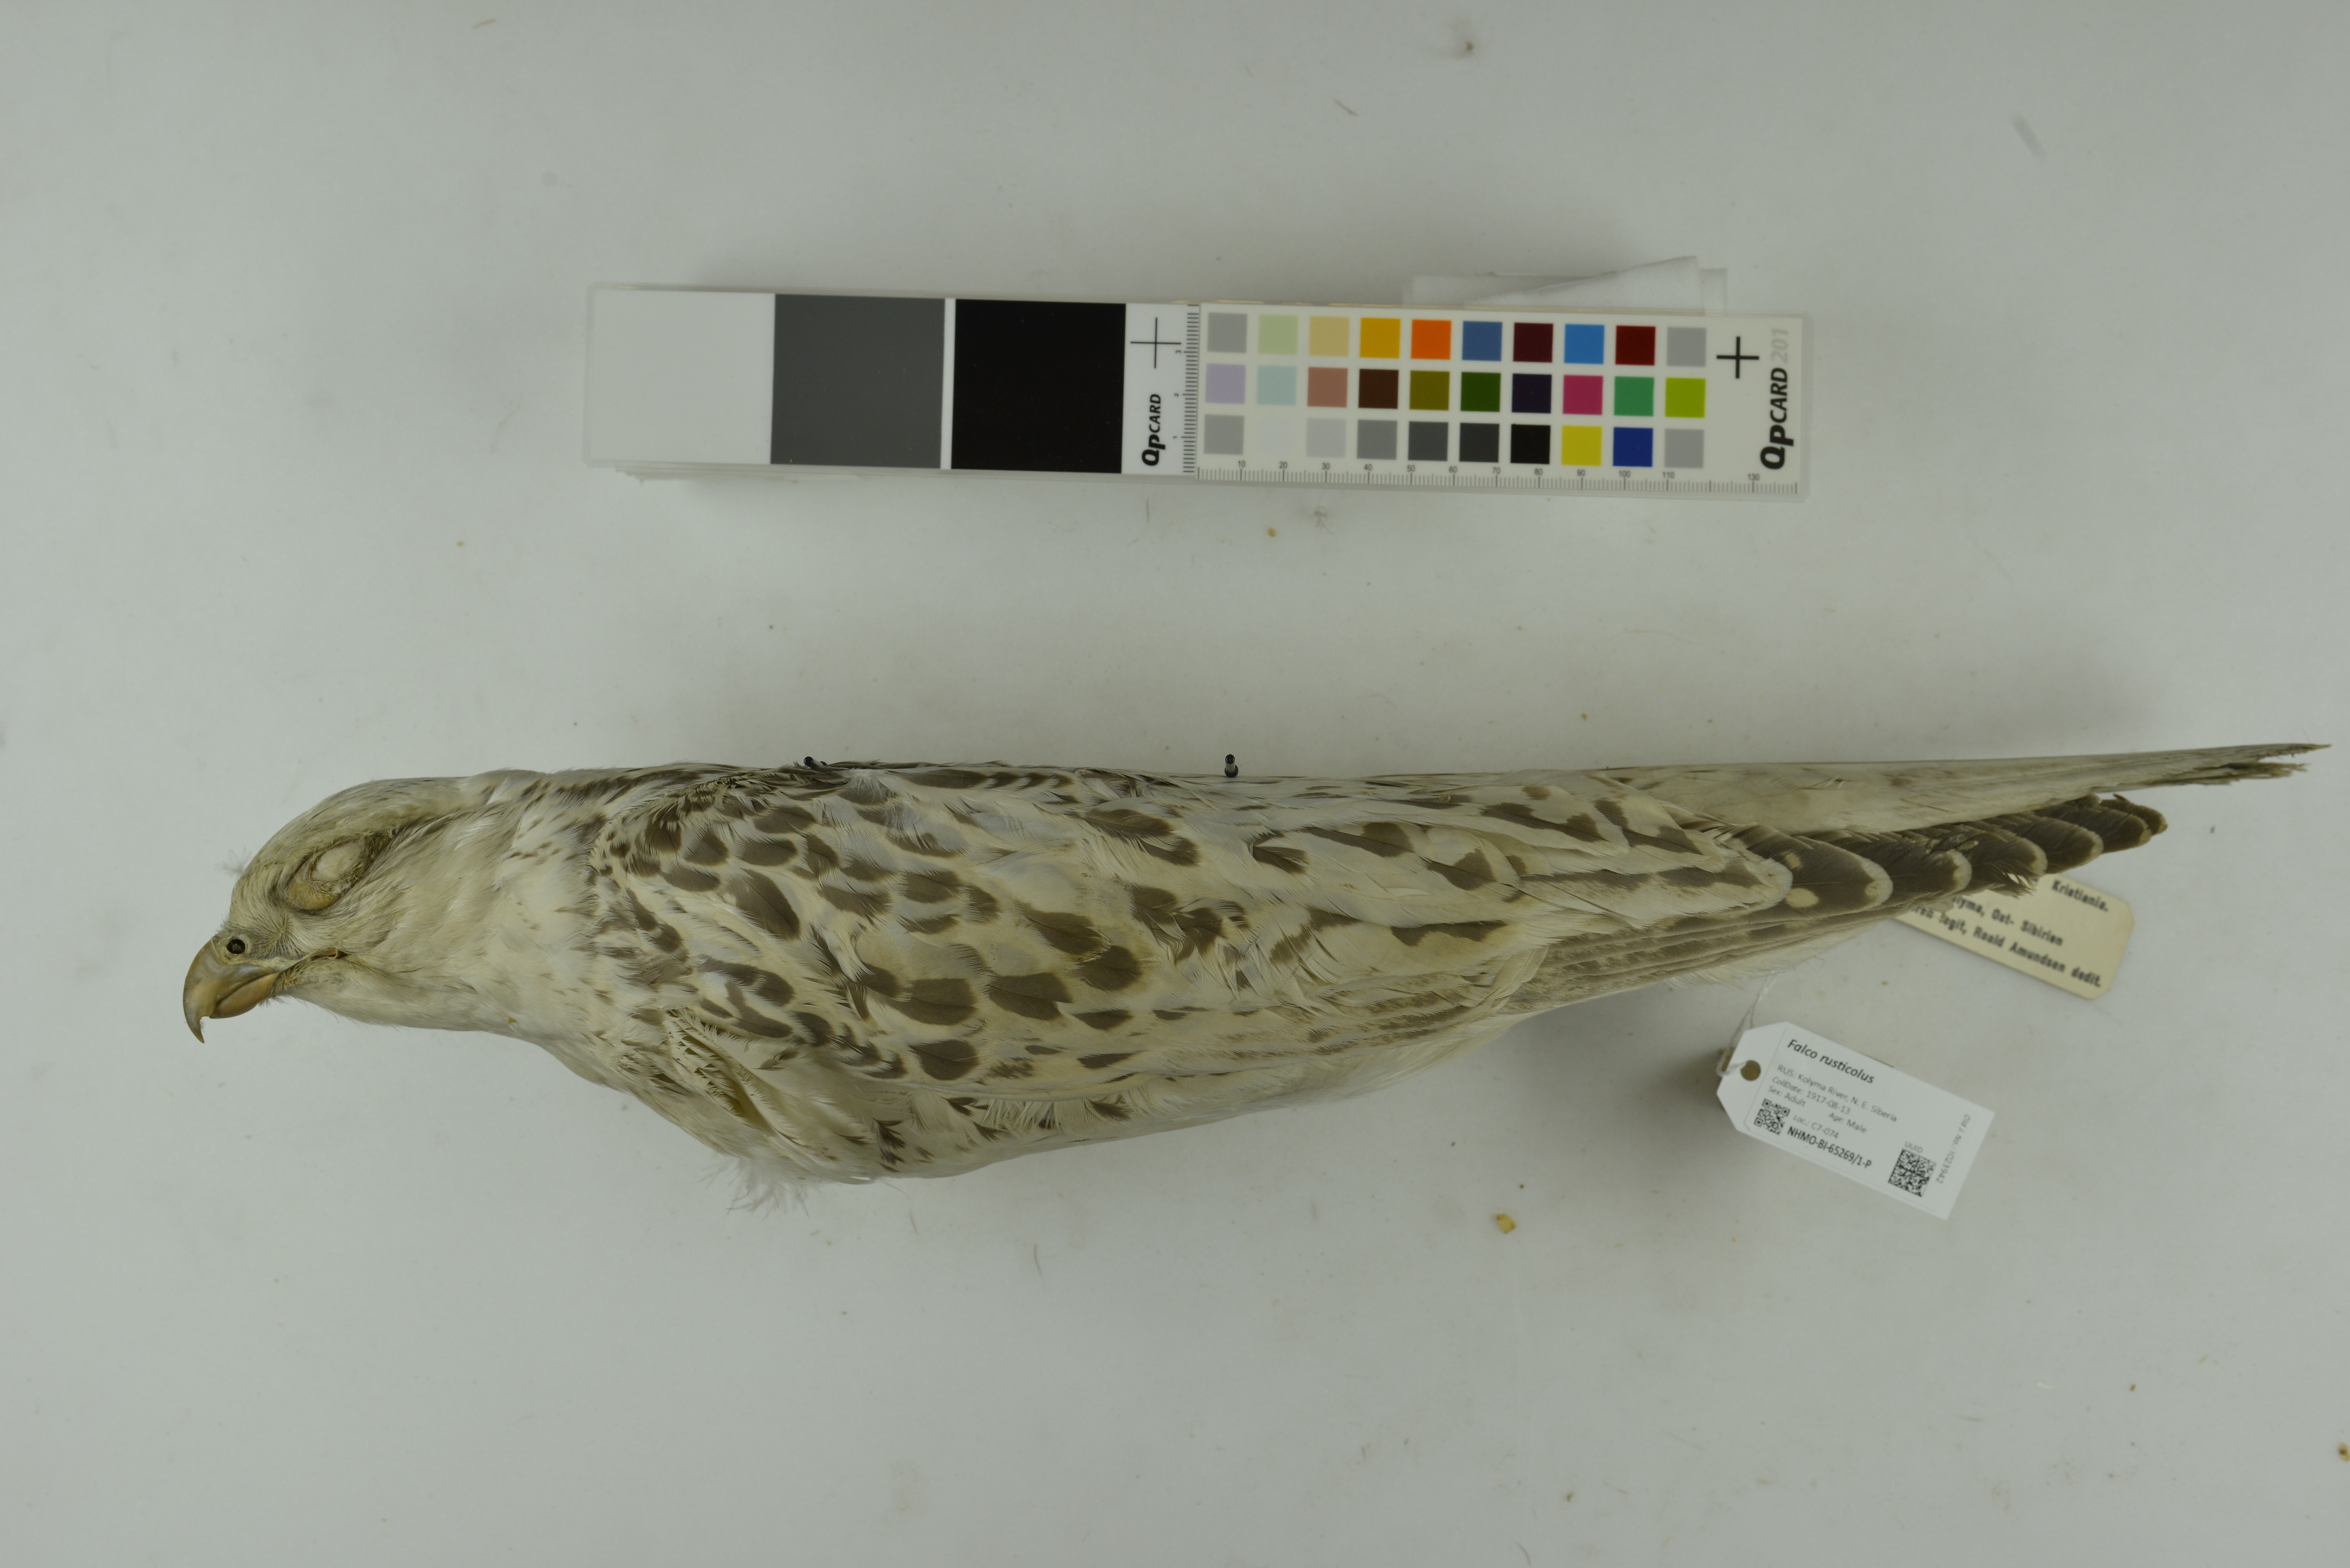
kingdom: Animalia
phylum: Chordata
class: Aves
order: Falconiformes
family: Falconidae
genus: Falco
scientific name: Falco rusticolus
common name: Gyrfalcon
